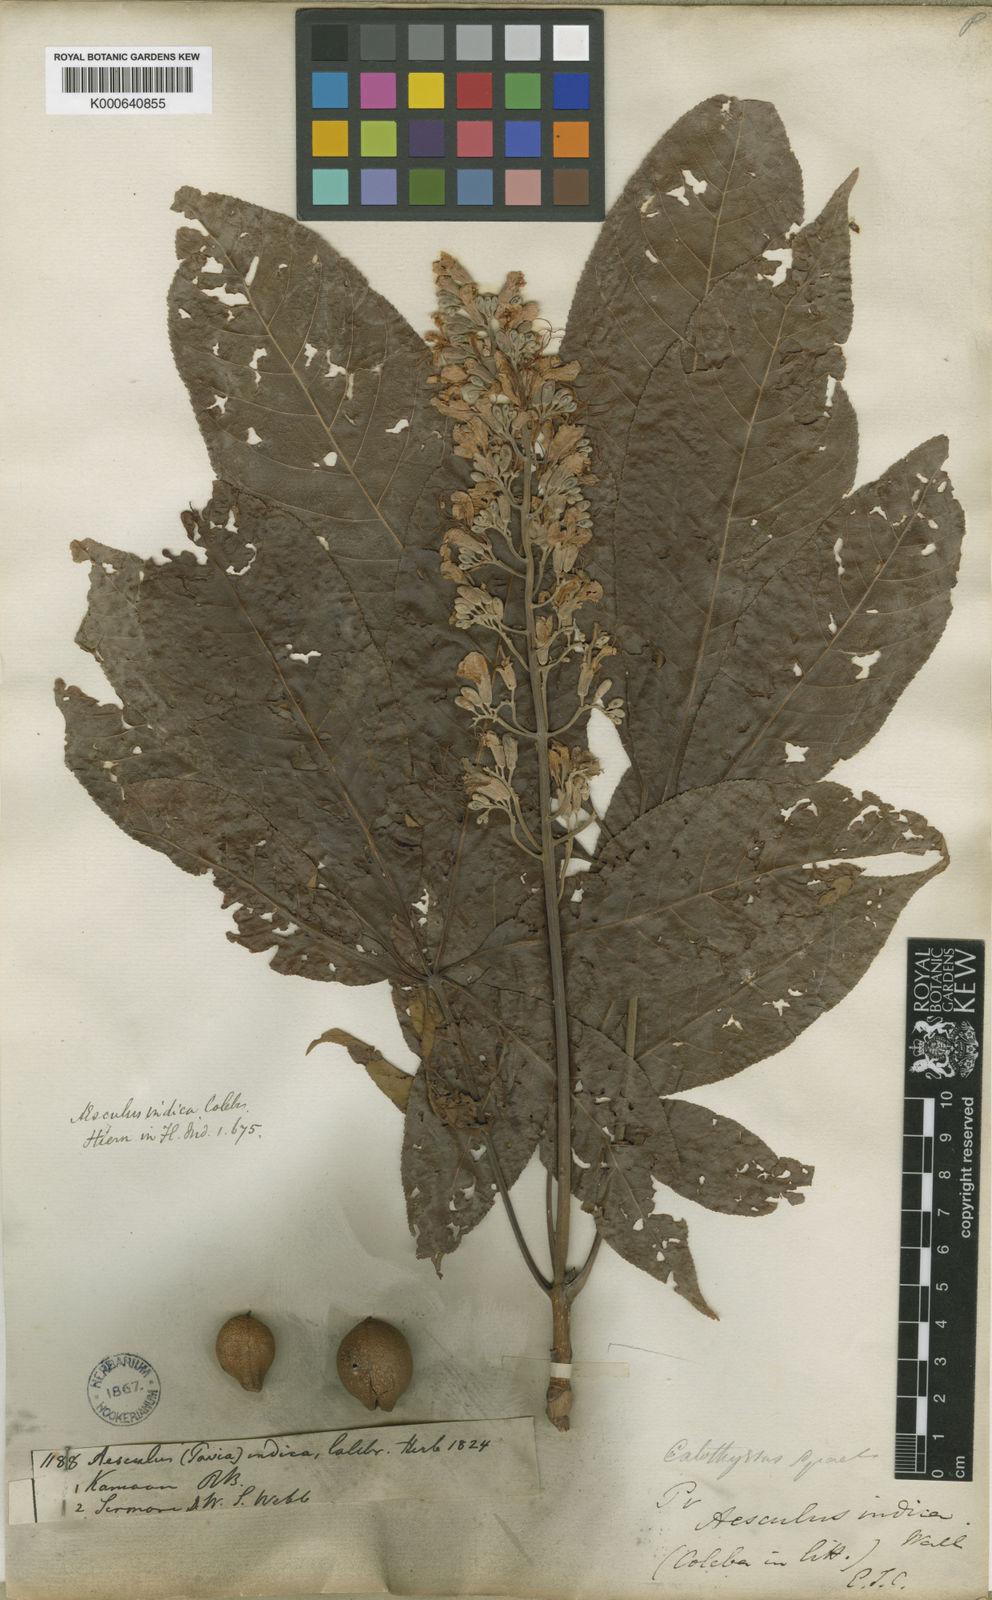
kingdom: Plantae
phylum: Tracheophyta
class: Magnoliopsida
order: Sapindales
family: Sapindaceae
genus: Aesculus
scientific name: Aesculus indica
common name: Indian horse-chestnut
